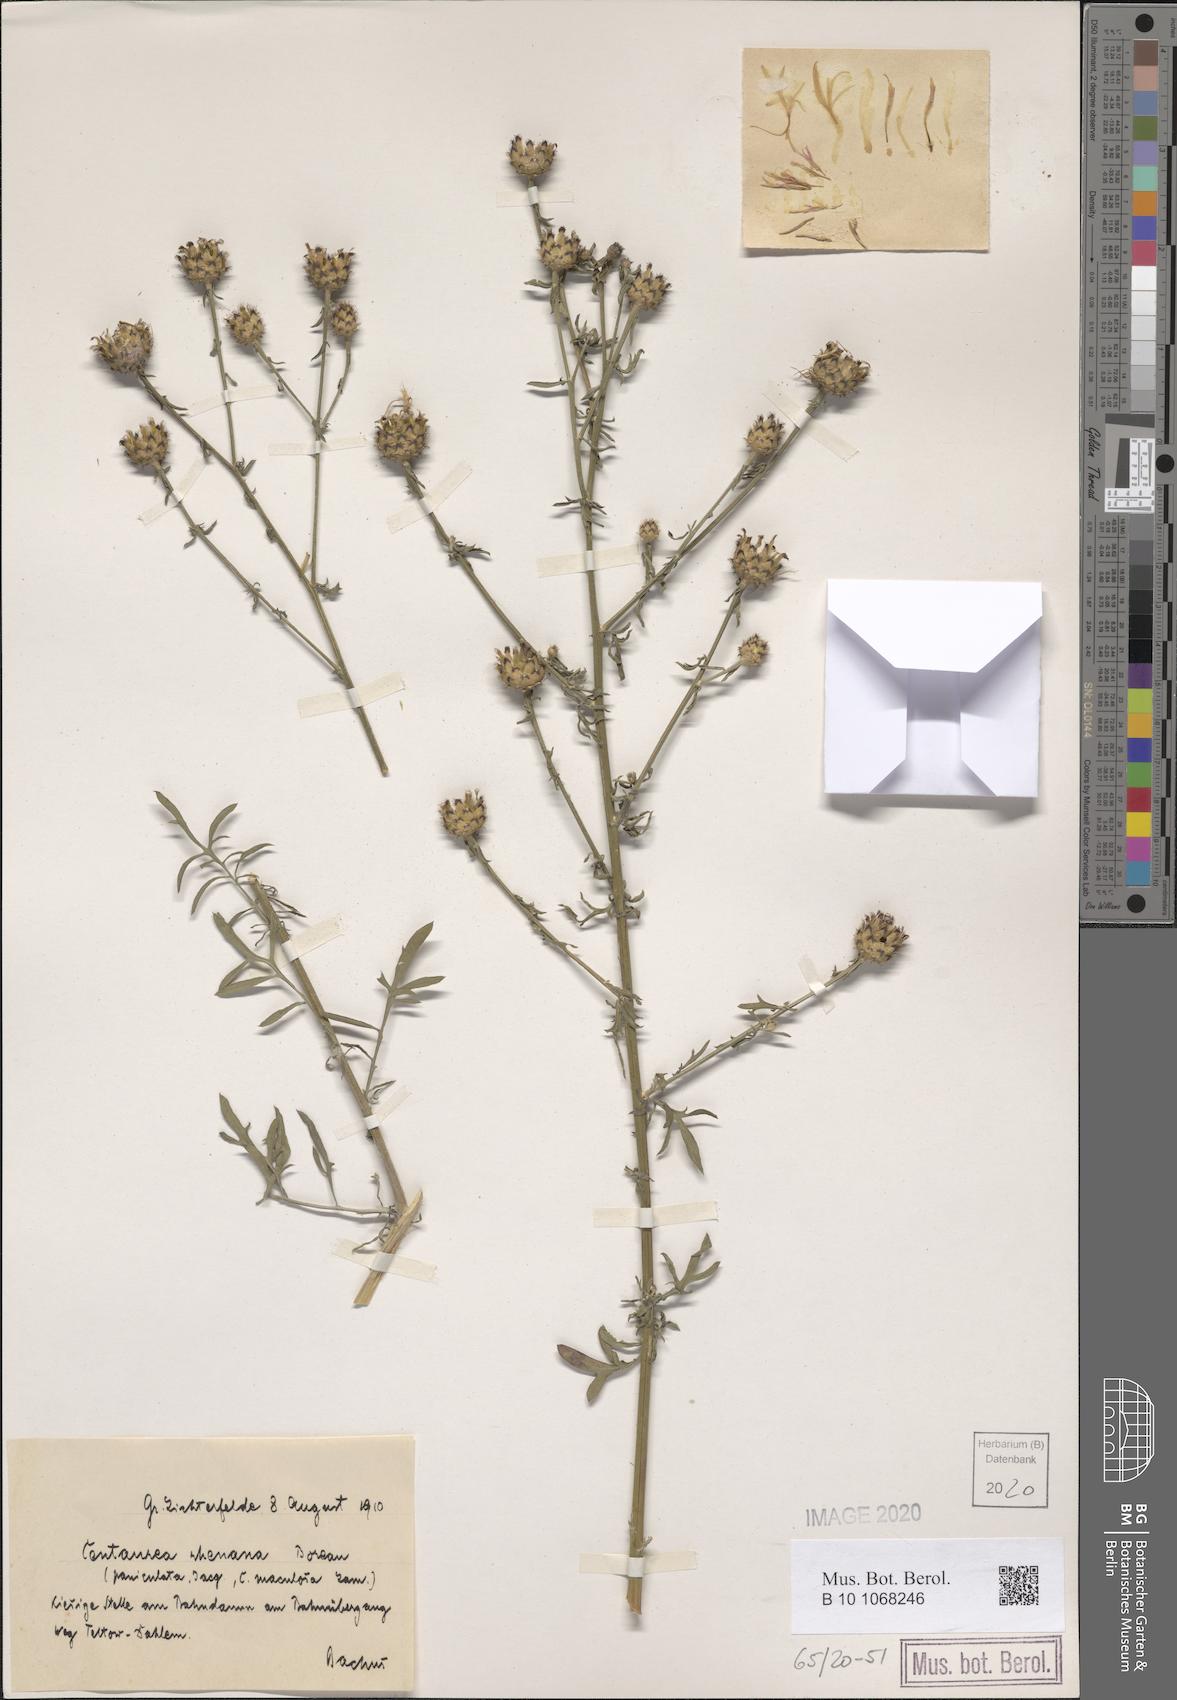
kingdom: Plantae
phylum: Tracheophyta
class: Magnoliopsida
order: Asterales
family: Asteraceae
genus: Centaurea
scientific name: Centaurea stoebe
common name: Spotted knapweed
